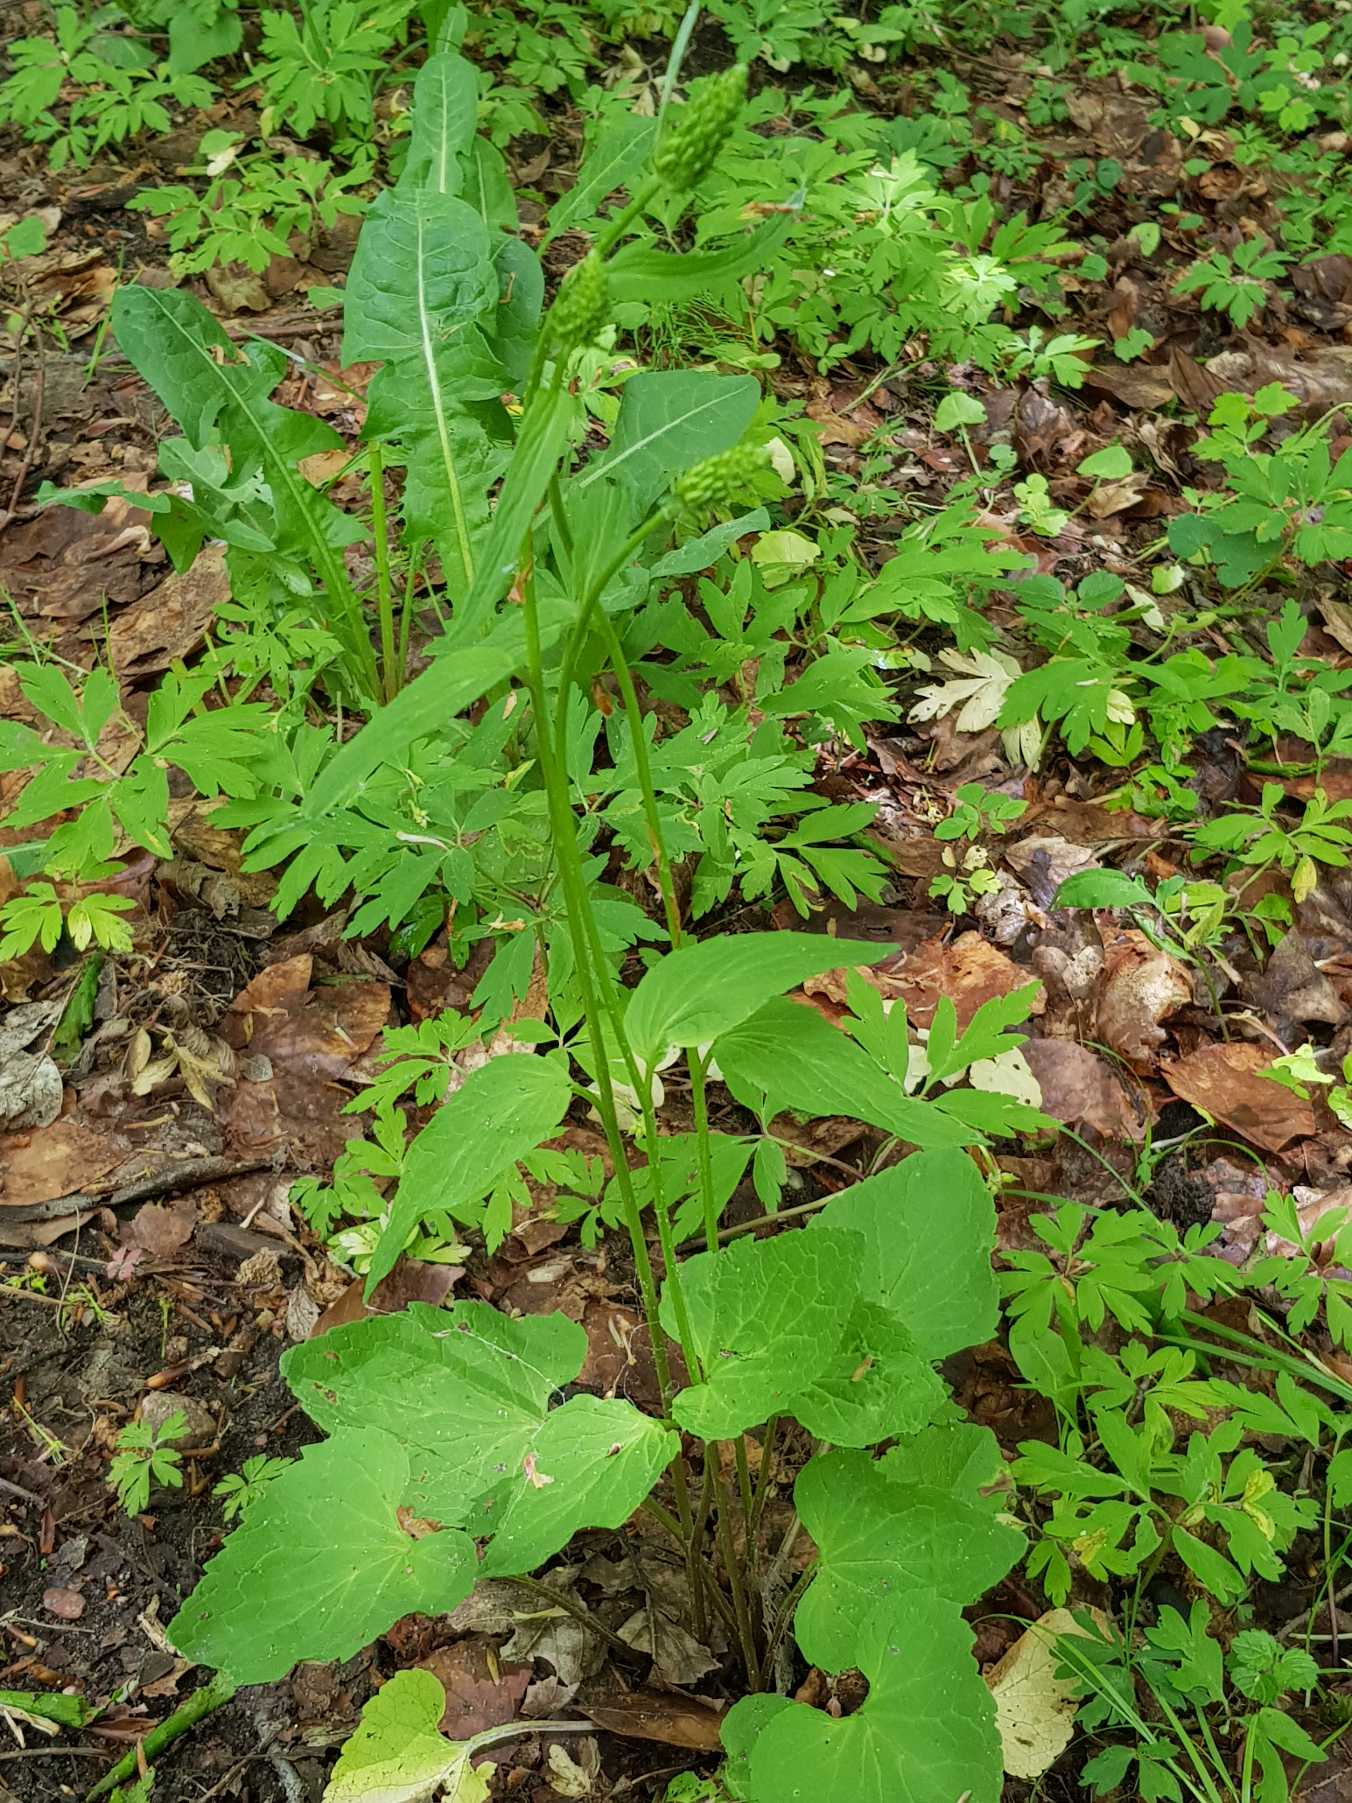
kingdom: Plantae
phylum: Tracheophyta
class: Magnoliopsida
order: Asterales
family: Campanulaceae
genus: Phyteuma
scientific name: Phyteuma spicatum
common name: Aks-rapunsel
